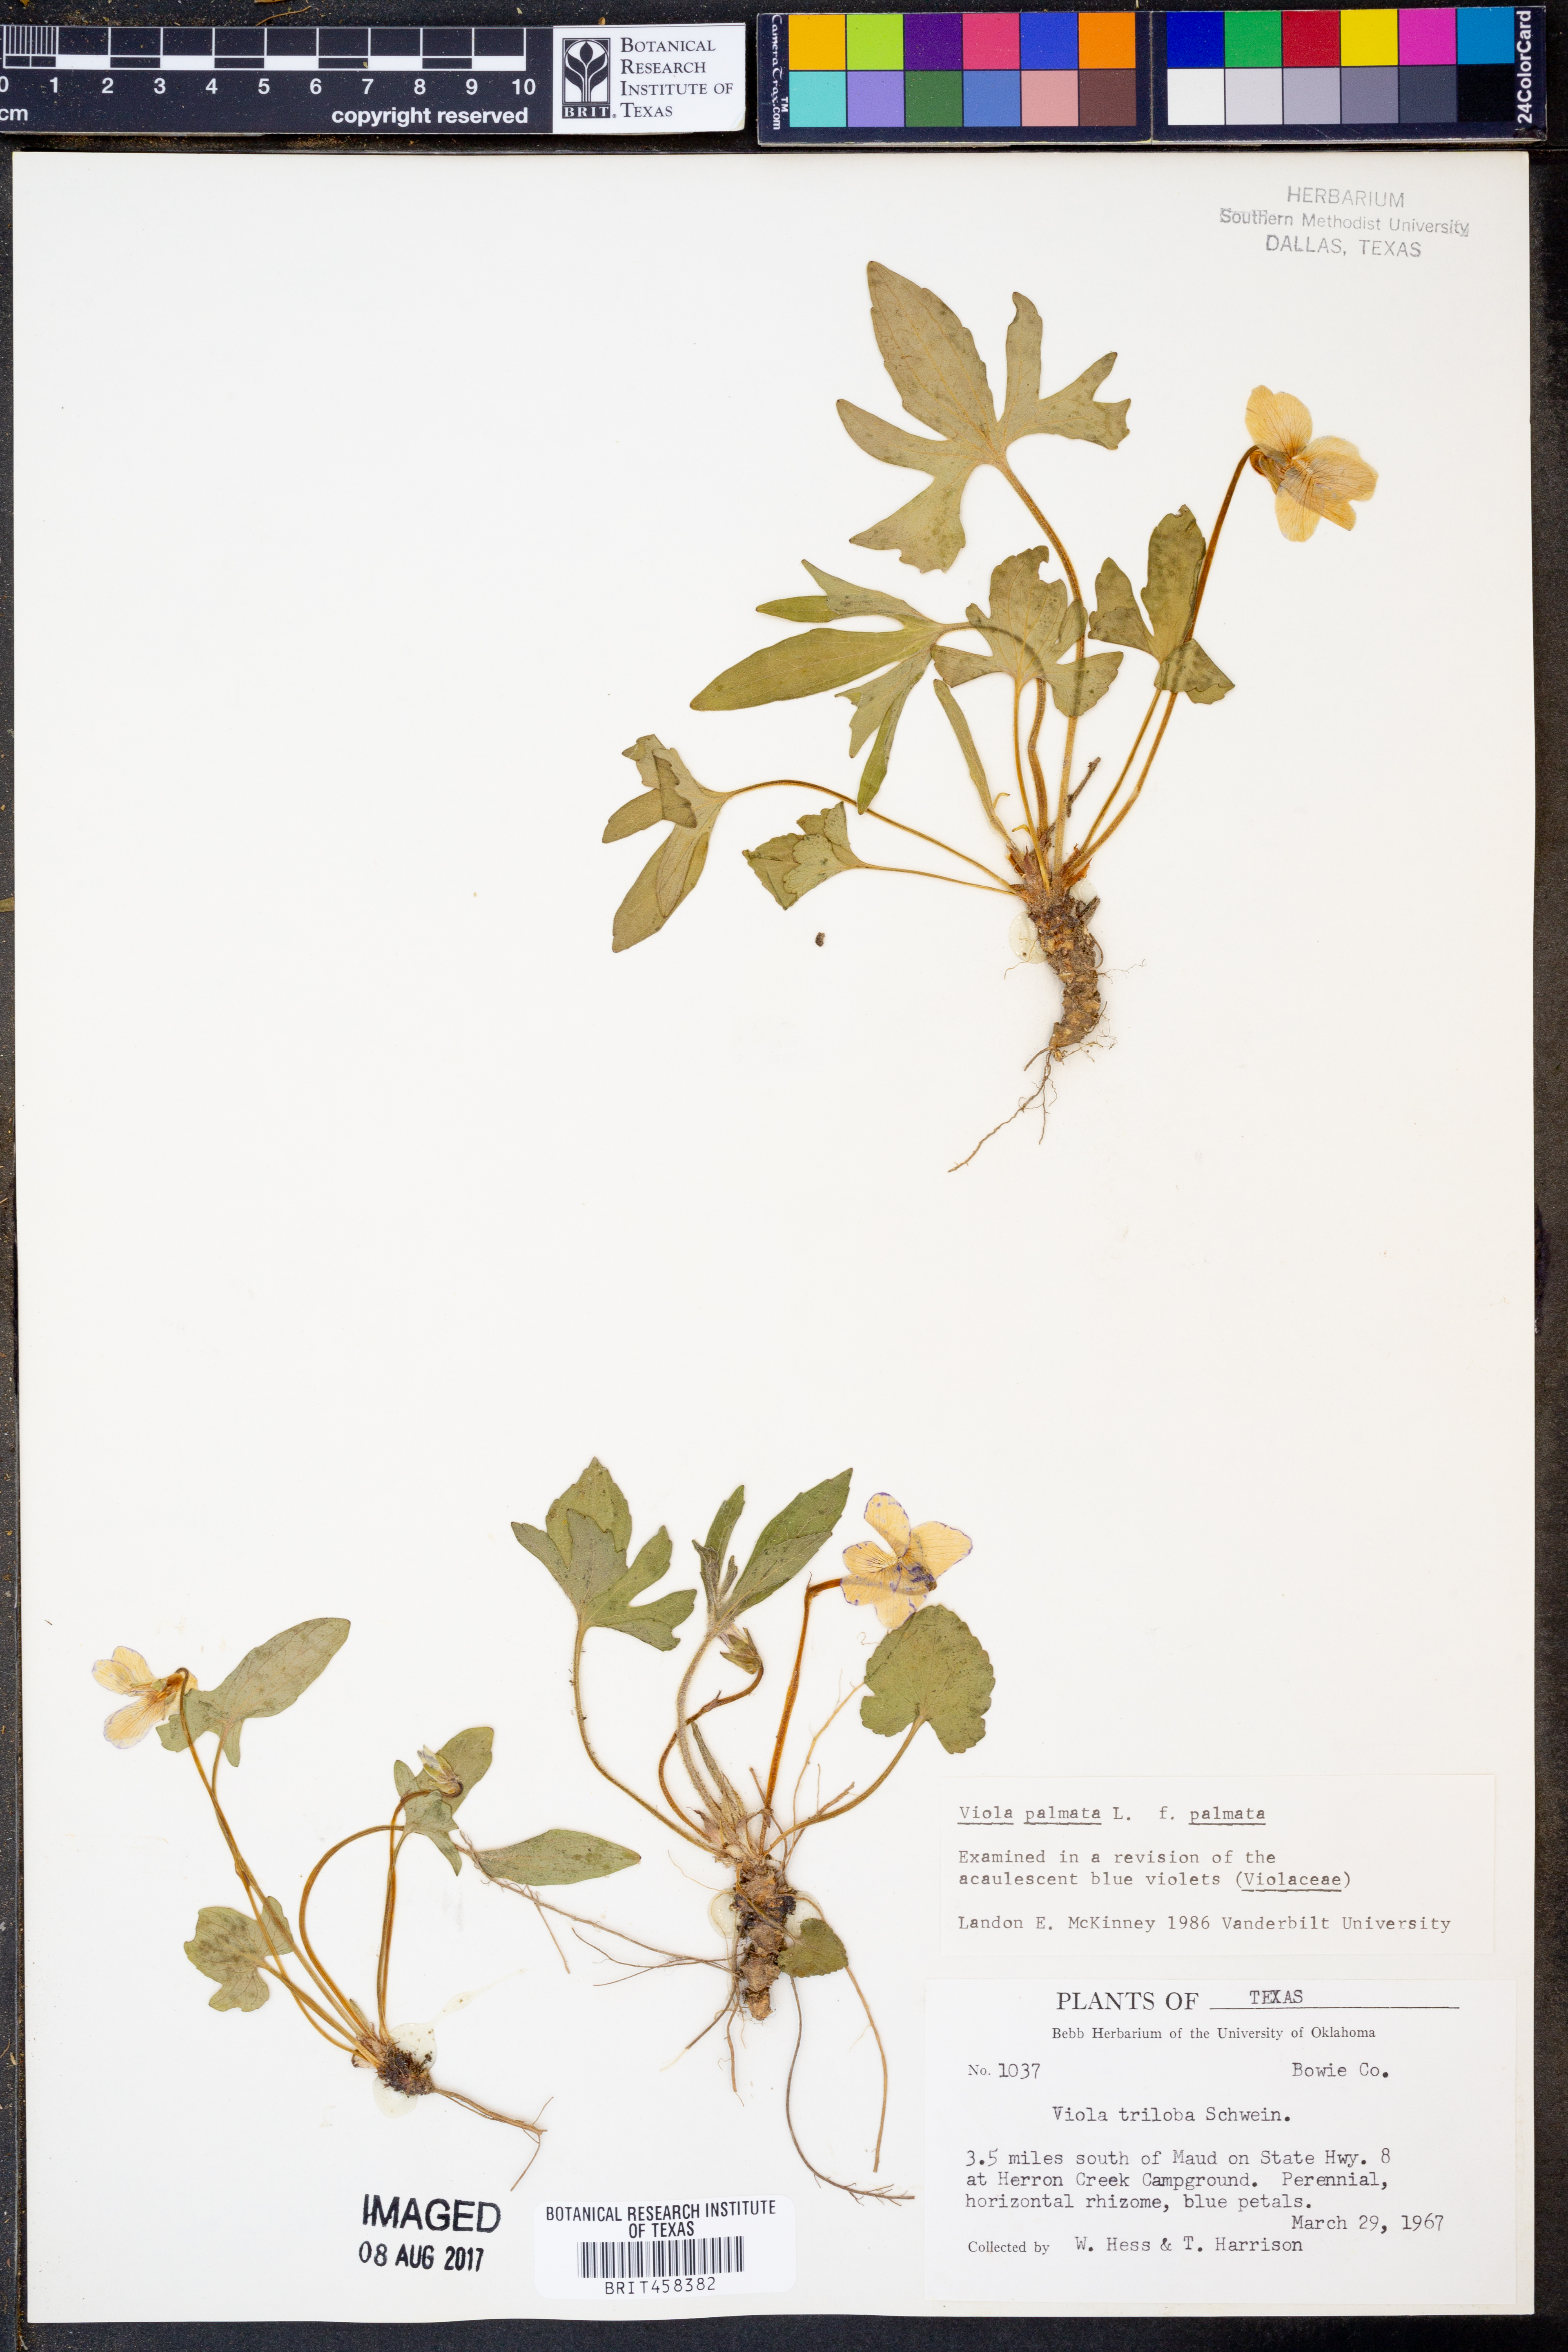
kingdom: Plantae
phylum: Tracheophyta
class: Magnoliopsida
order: Malpighiales
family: Violaceae
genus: Viola
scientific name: Viola palmata
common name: Early blue violet
